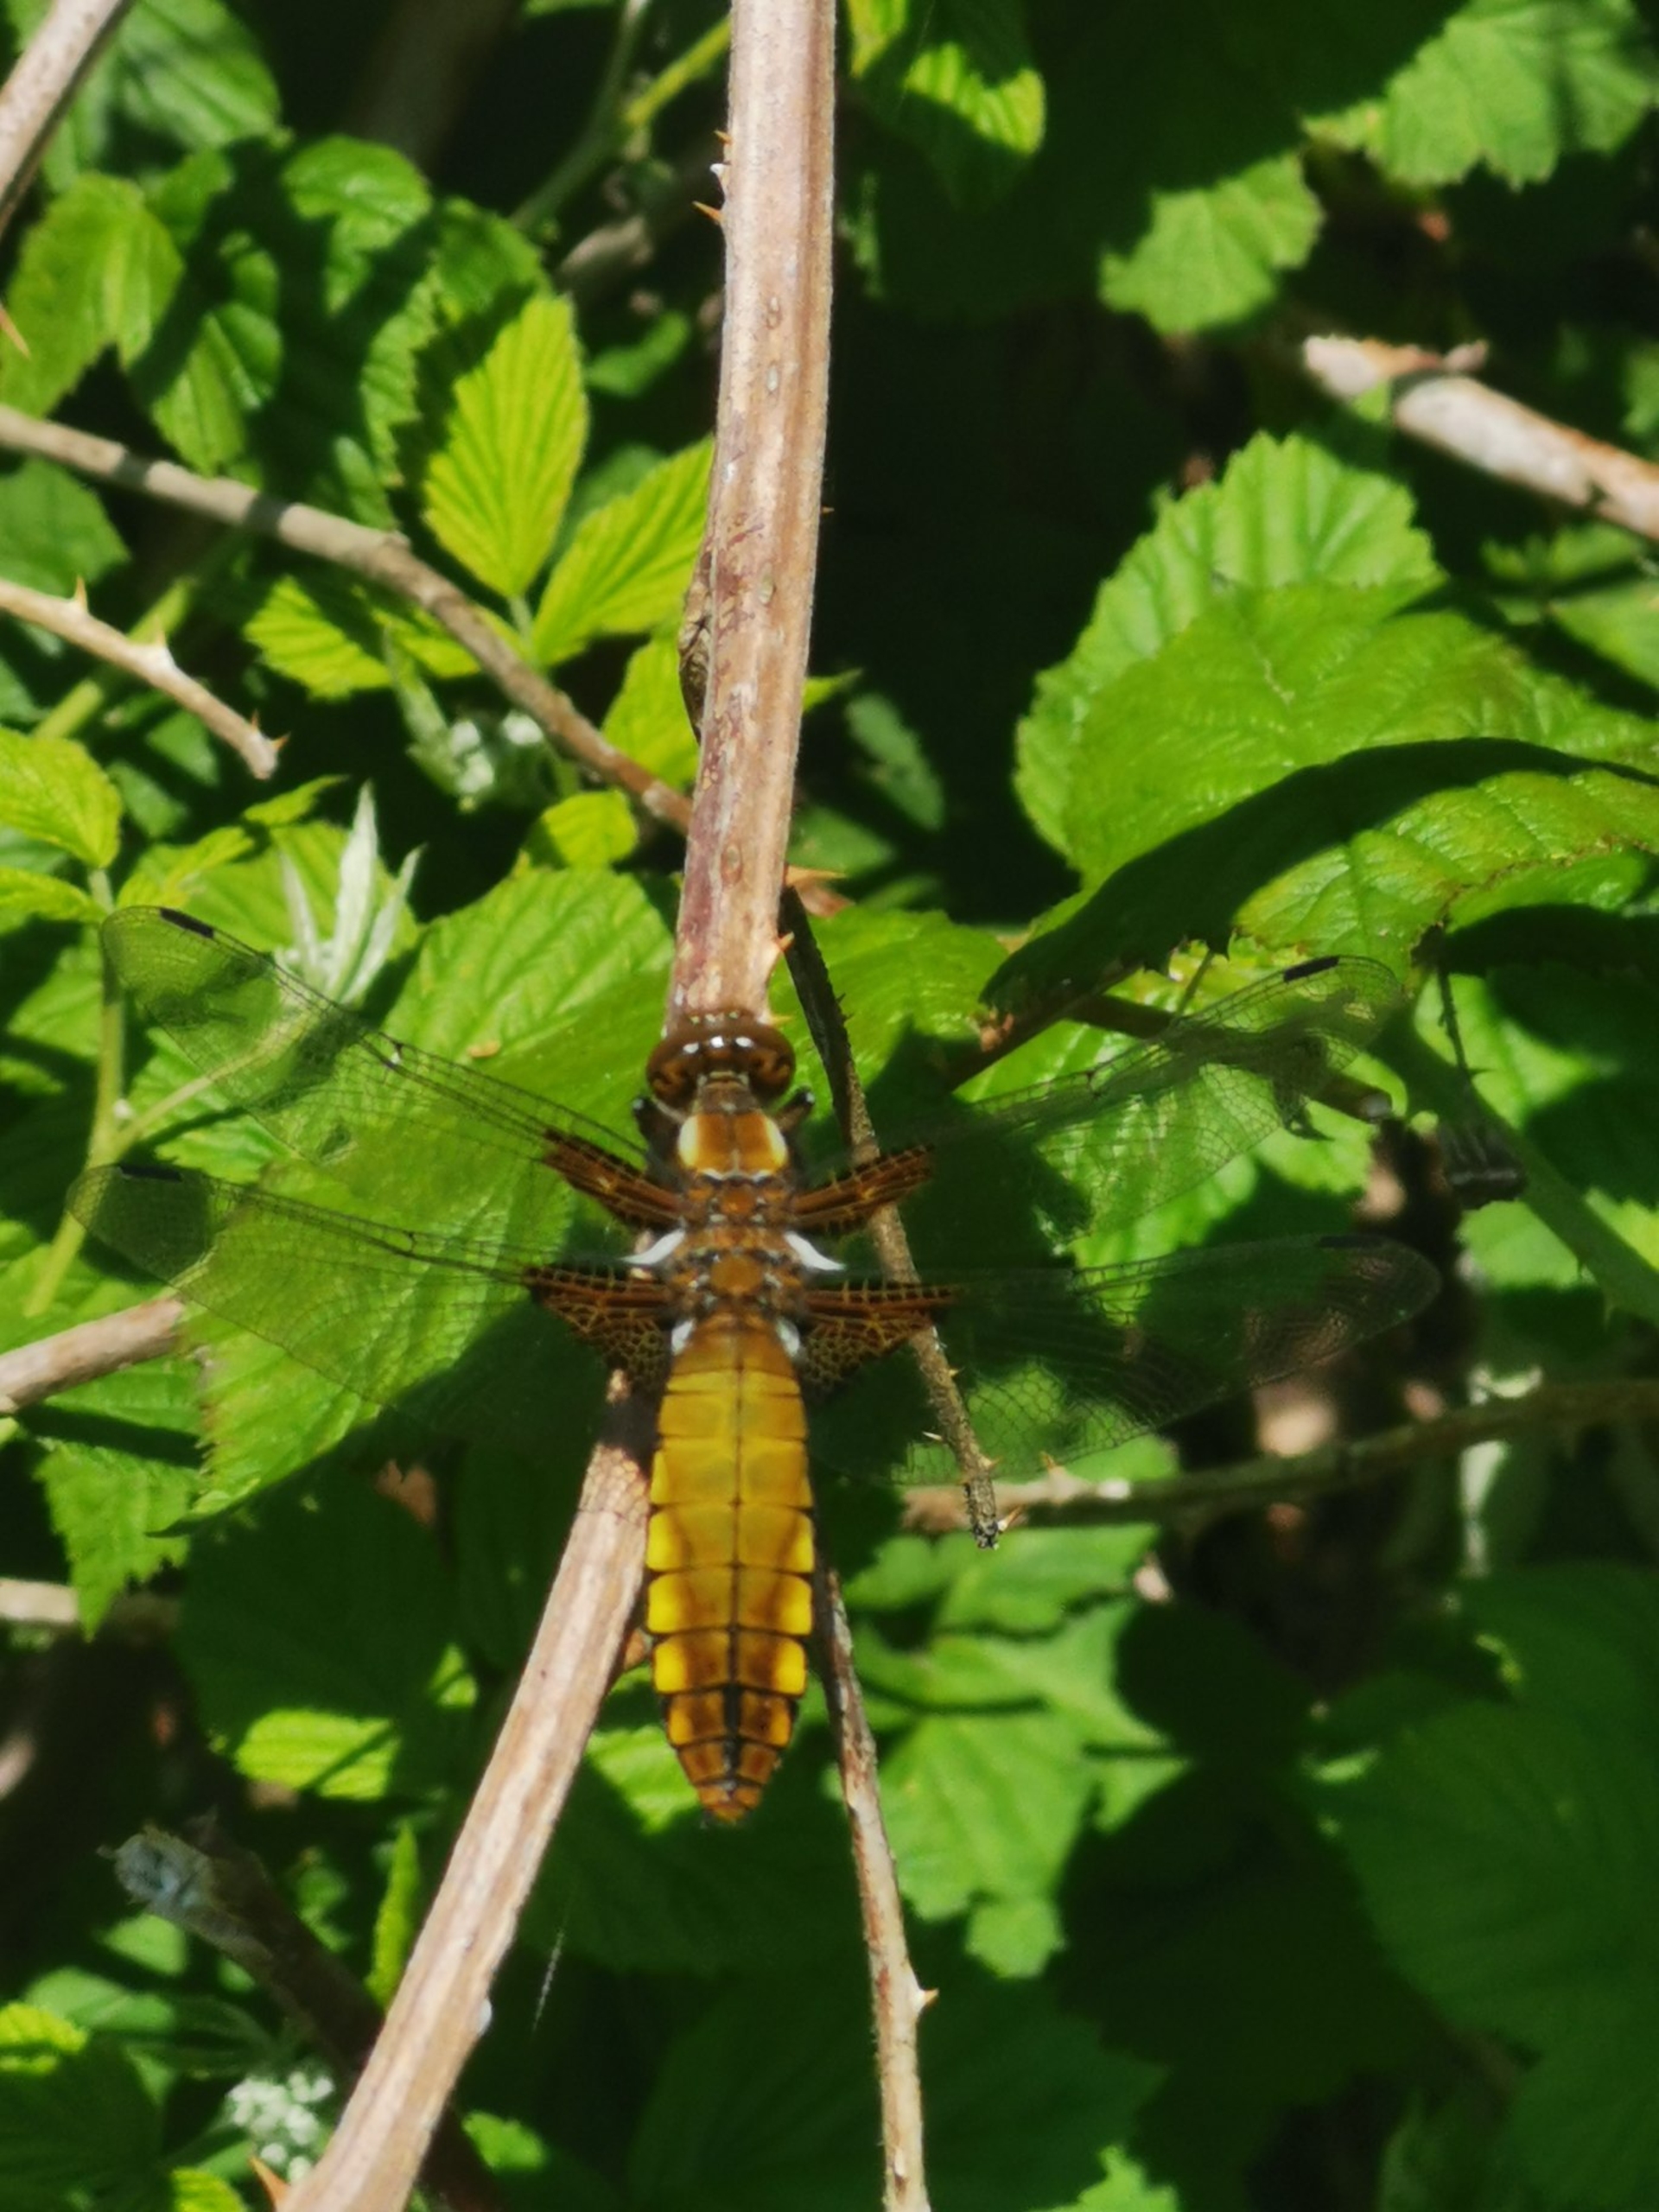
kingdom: Animalia
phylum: Arthropoda
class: Insecta
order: Odonata
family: Libellulidae
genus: Libellula
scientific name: Libellula depressa
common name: Blå libel
